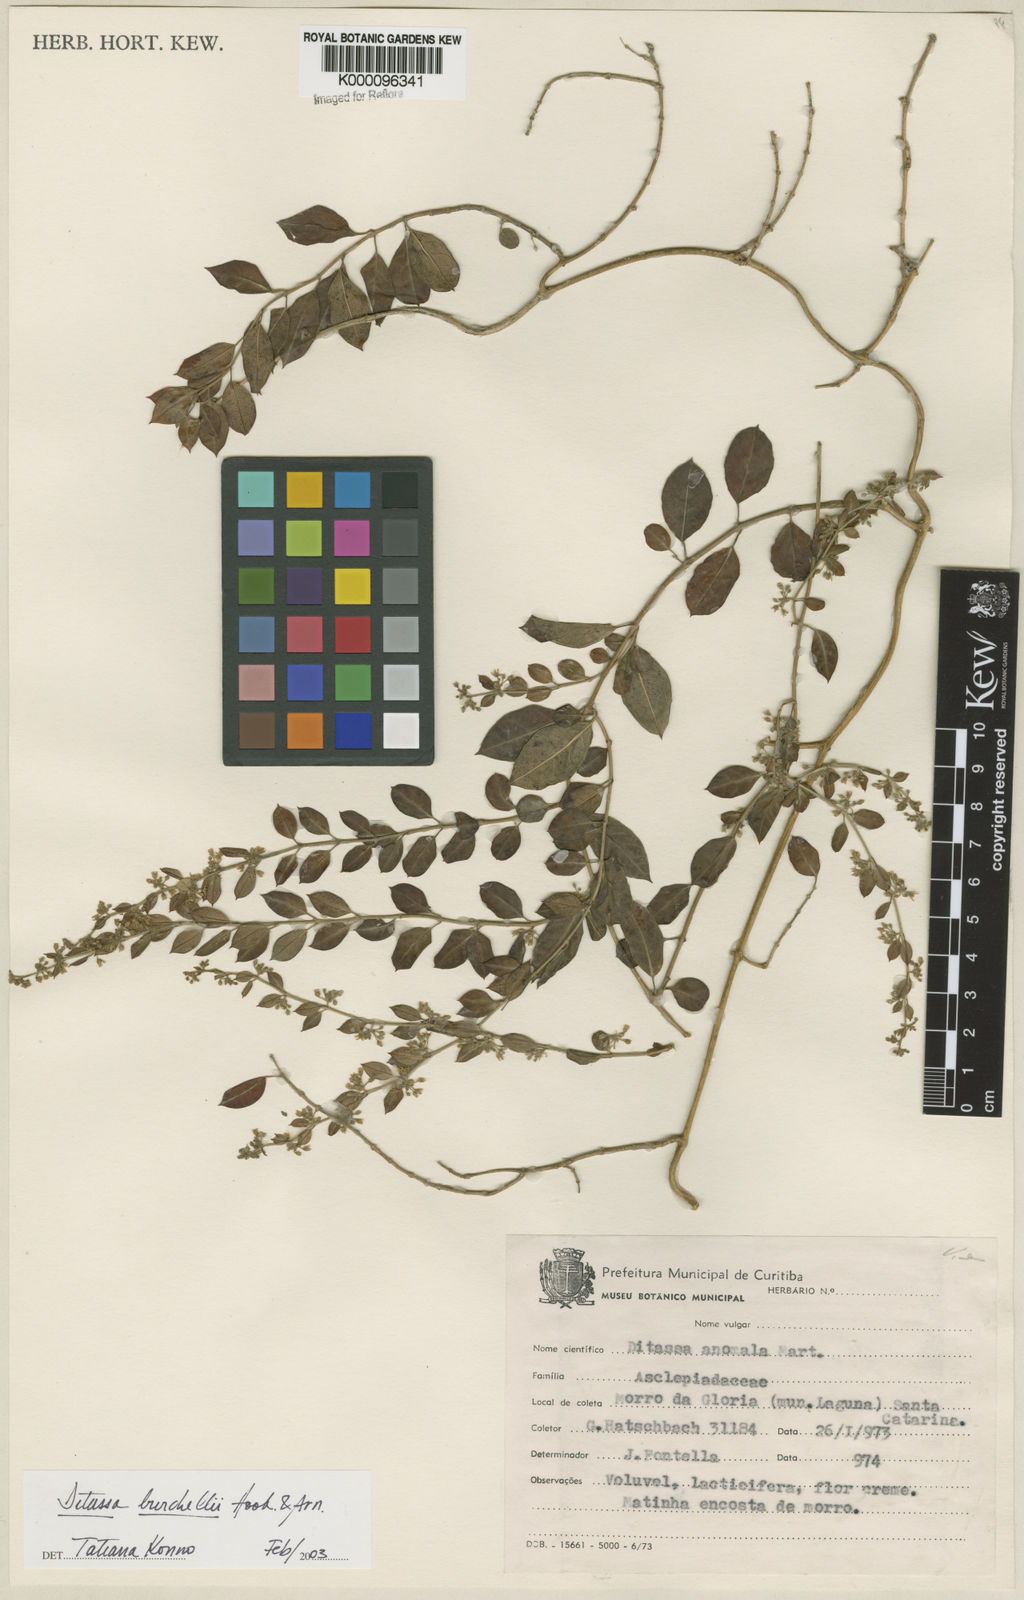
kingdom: Plantae
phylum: Tracheophyta
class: Magnoliopsida
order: Gentianales
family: Apocynaceae
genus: Metastelma
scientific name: Metastelma burchellii
